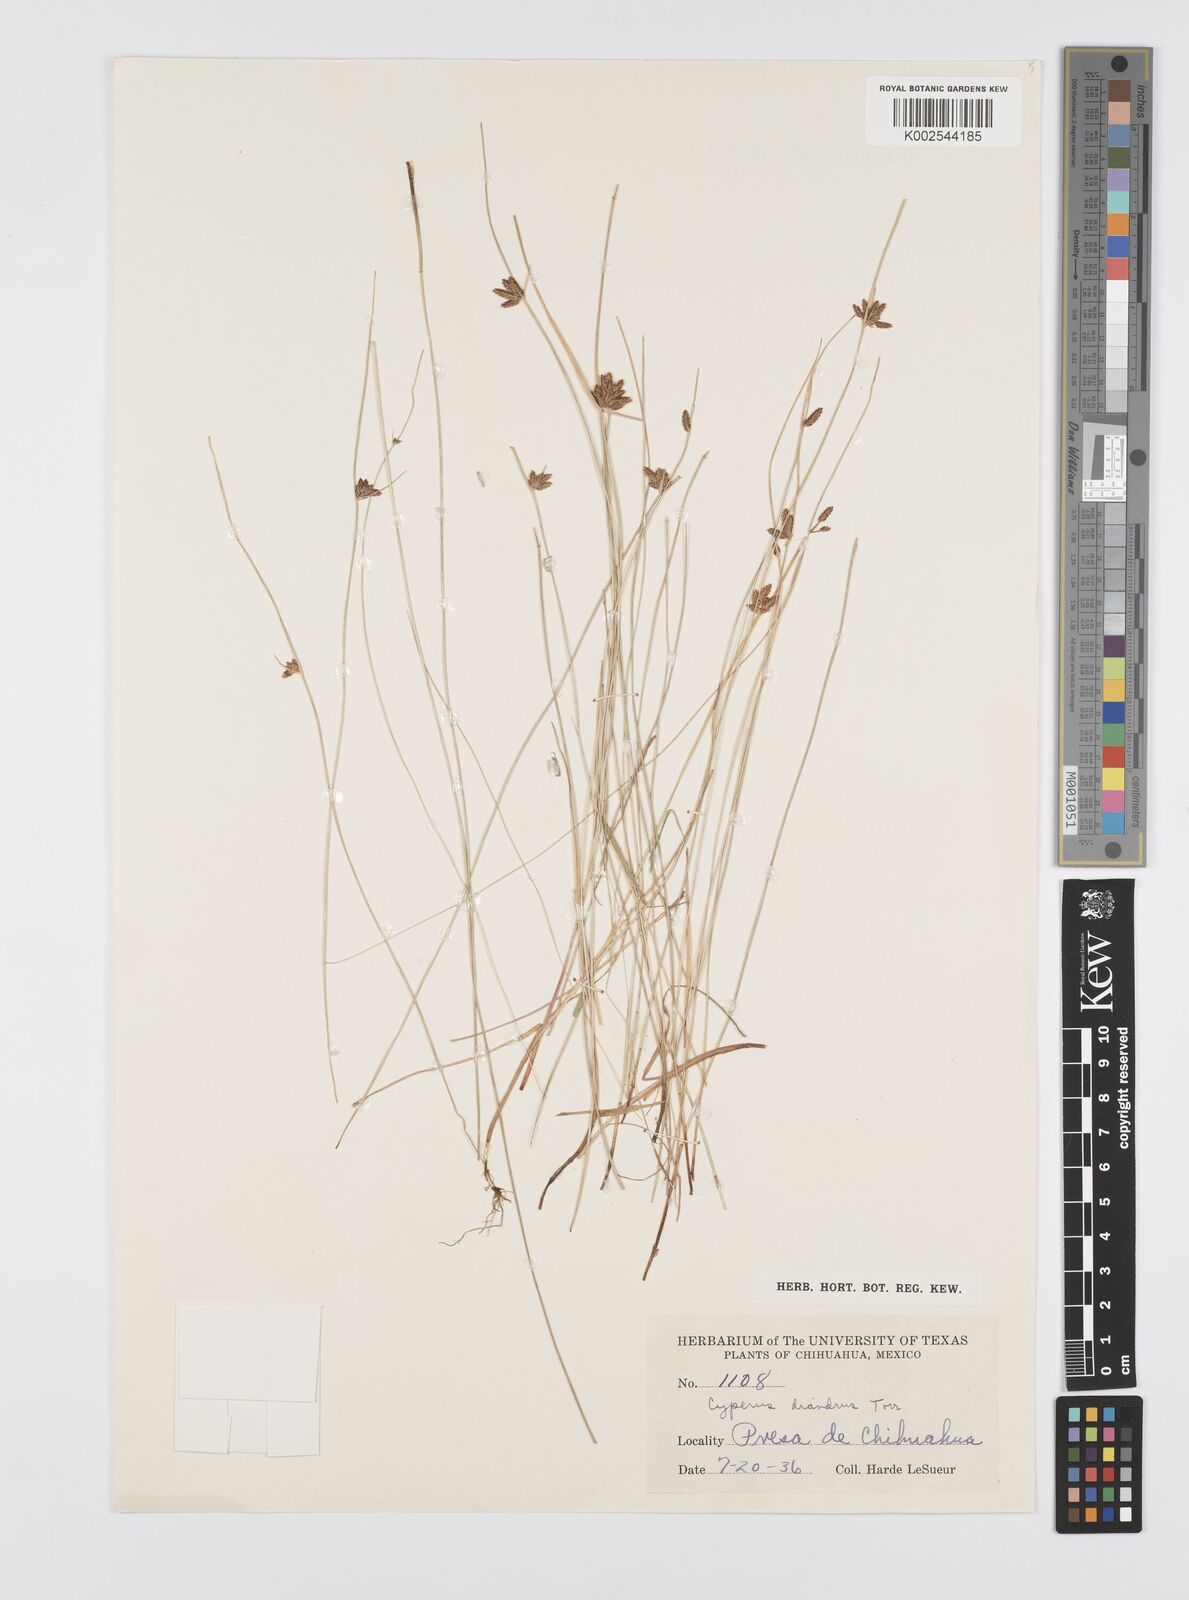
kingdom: Plantae
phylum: Tracheophyta
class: Liliopsida
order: Poales
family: Cyperaceae
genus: Cyperus
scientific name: Cyperus diandrus
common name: Low cyperus
